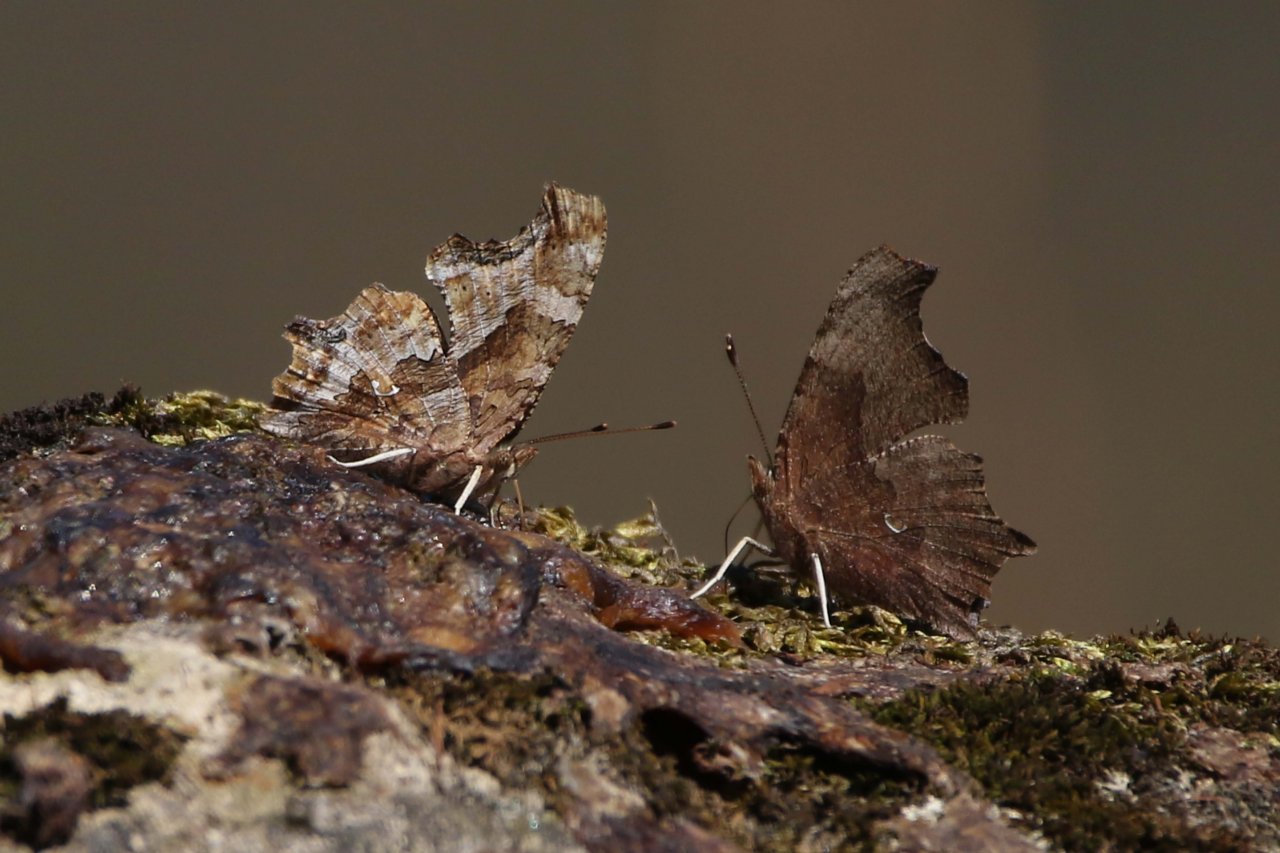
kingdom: Animalia
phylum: Arthropoda
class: Insecta
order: Lepidoptera
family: Nymphalidae
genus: Polygonia
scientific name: Polygonia comma
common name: Eastern Comma
